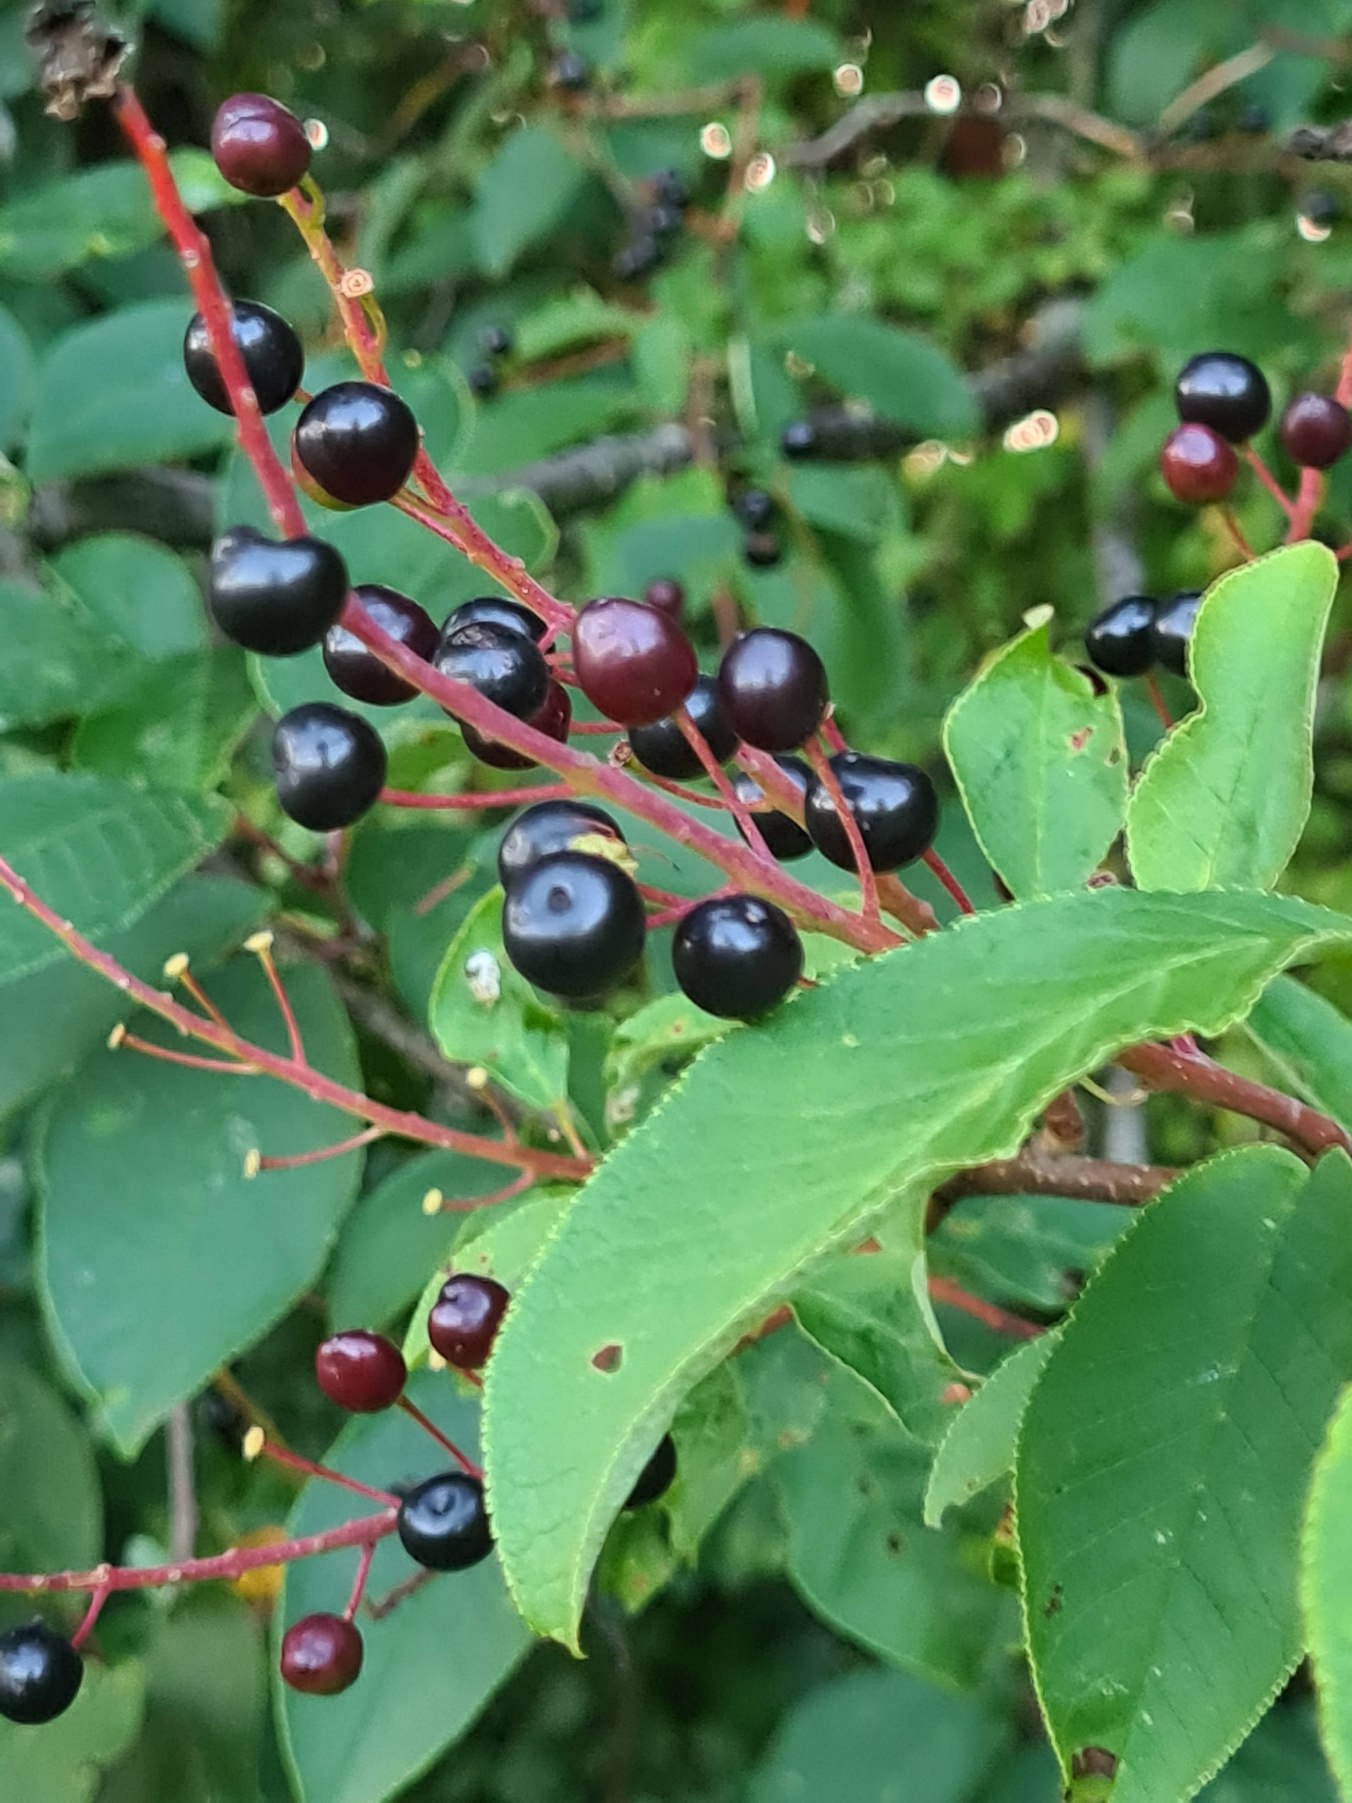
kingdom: Plantae
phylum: Tracheophyta
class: Magnoliopsida
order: Rosales
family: Rosaceae
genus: Prunus
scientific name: Prunus padus
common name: Almindelig hæg
